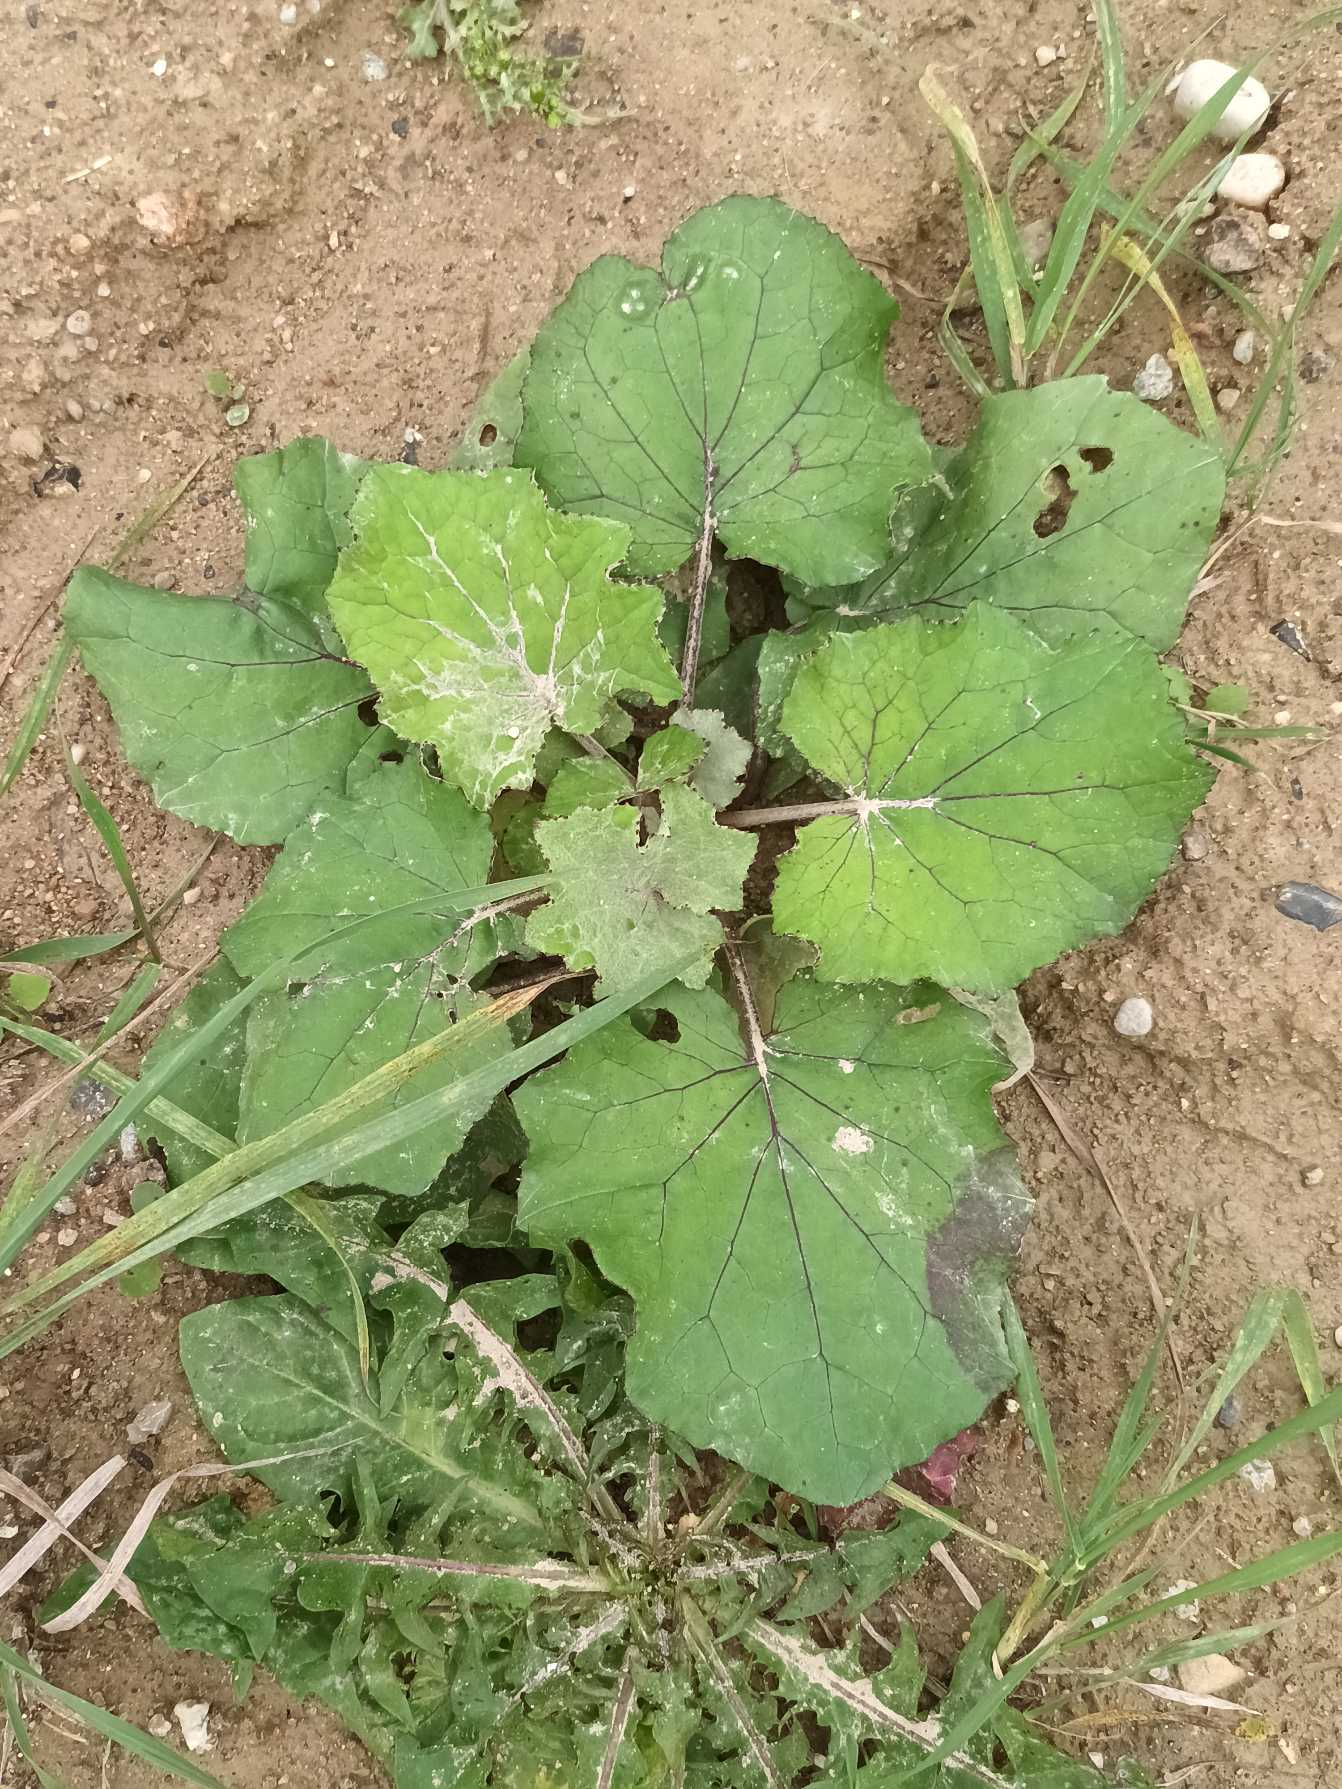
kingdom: Plantae
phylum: Tracheophyta
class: Magnoliopsida
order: Asterales
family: Asteraceae
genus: Tussilago
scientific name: Tussilago farfara
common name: Følfod
